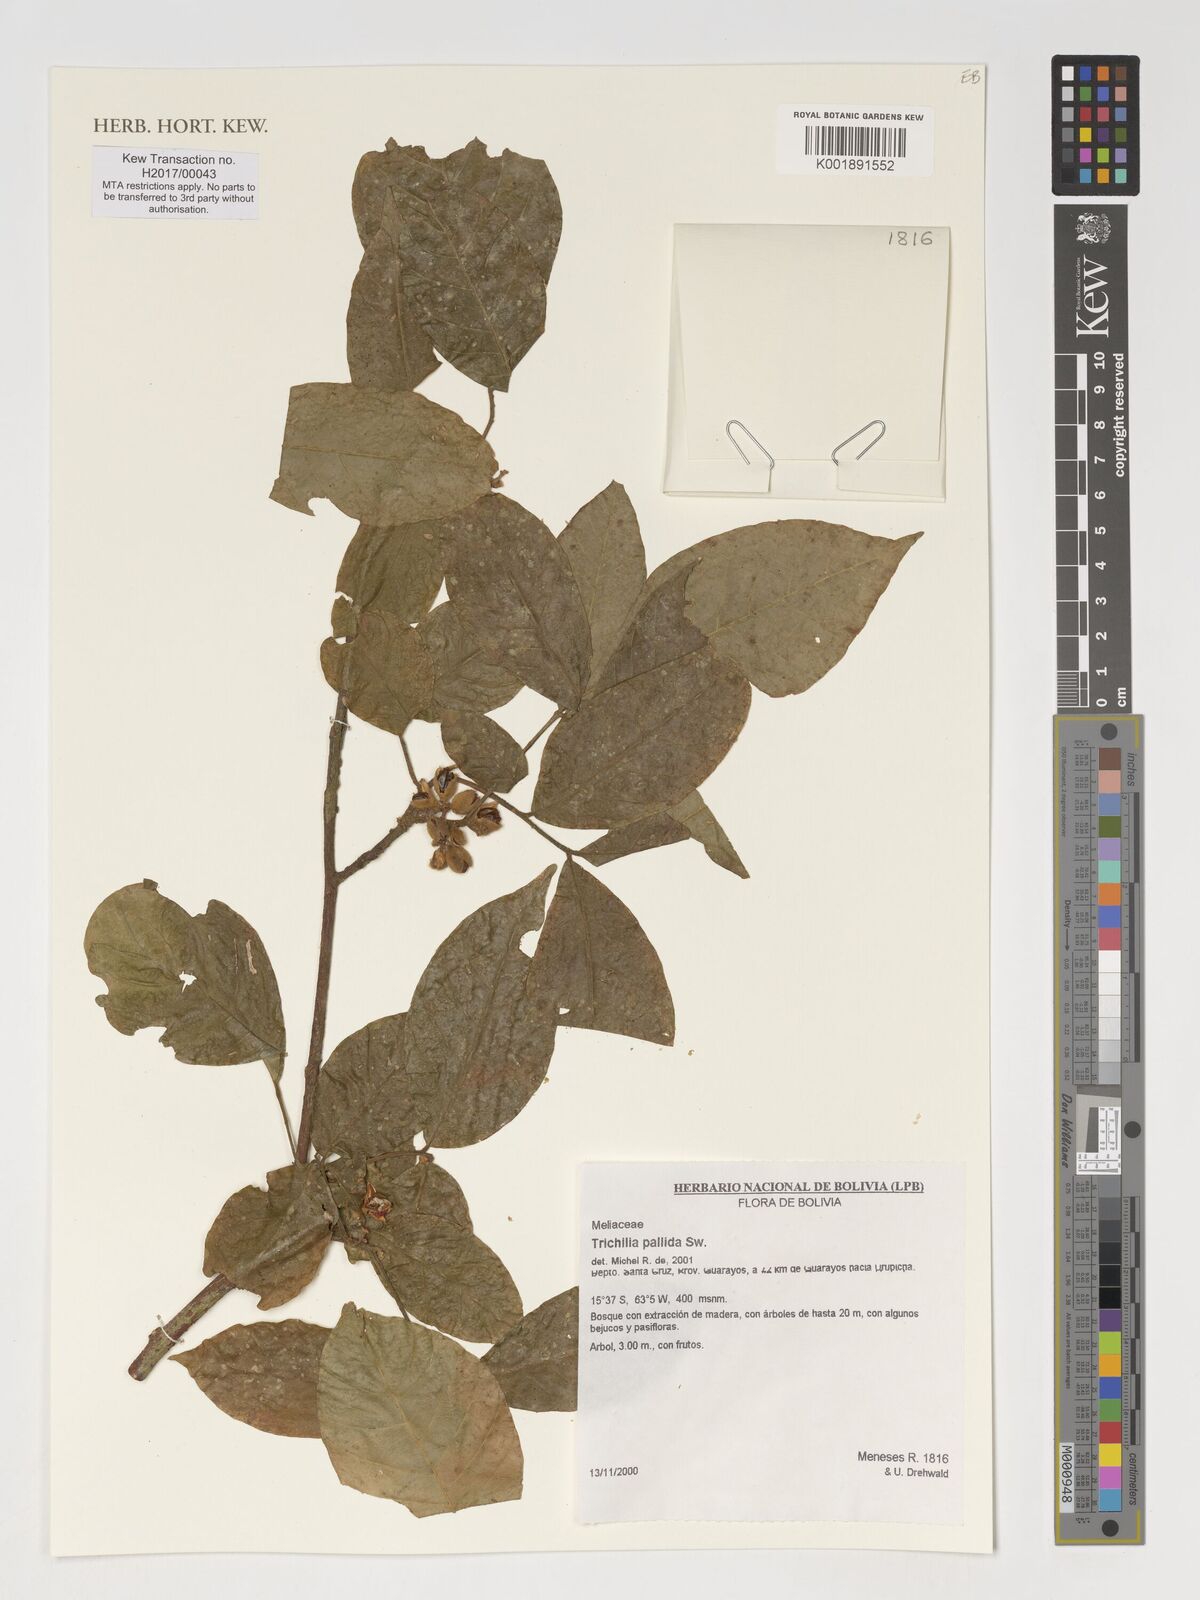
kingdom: Plantae
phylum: Tracheophyta
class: Magnoliopsida
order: Sapindales
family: Meliaceae
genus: Trichilia
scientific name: Trichilia pallida
